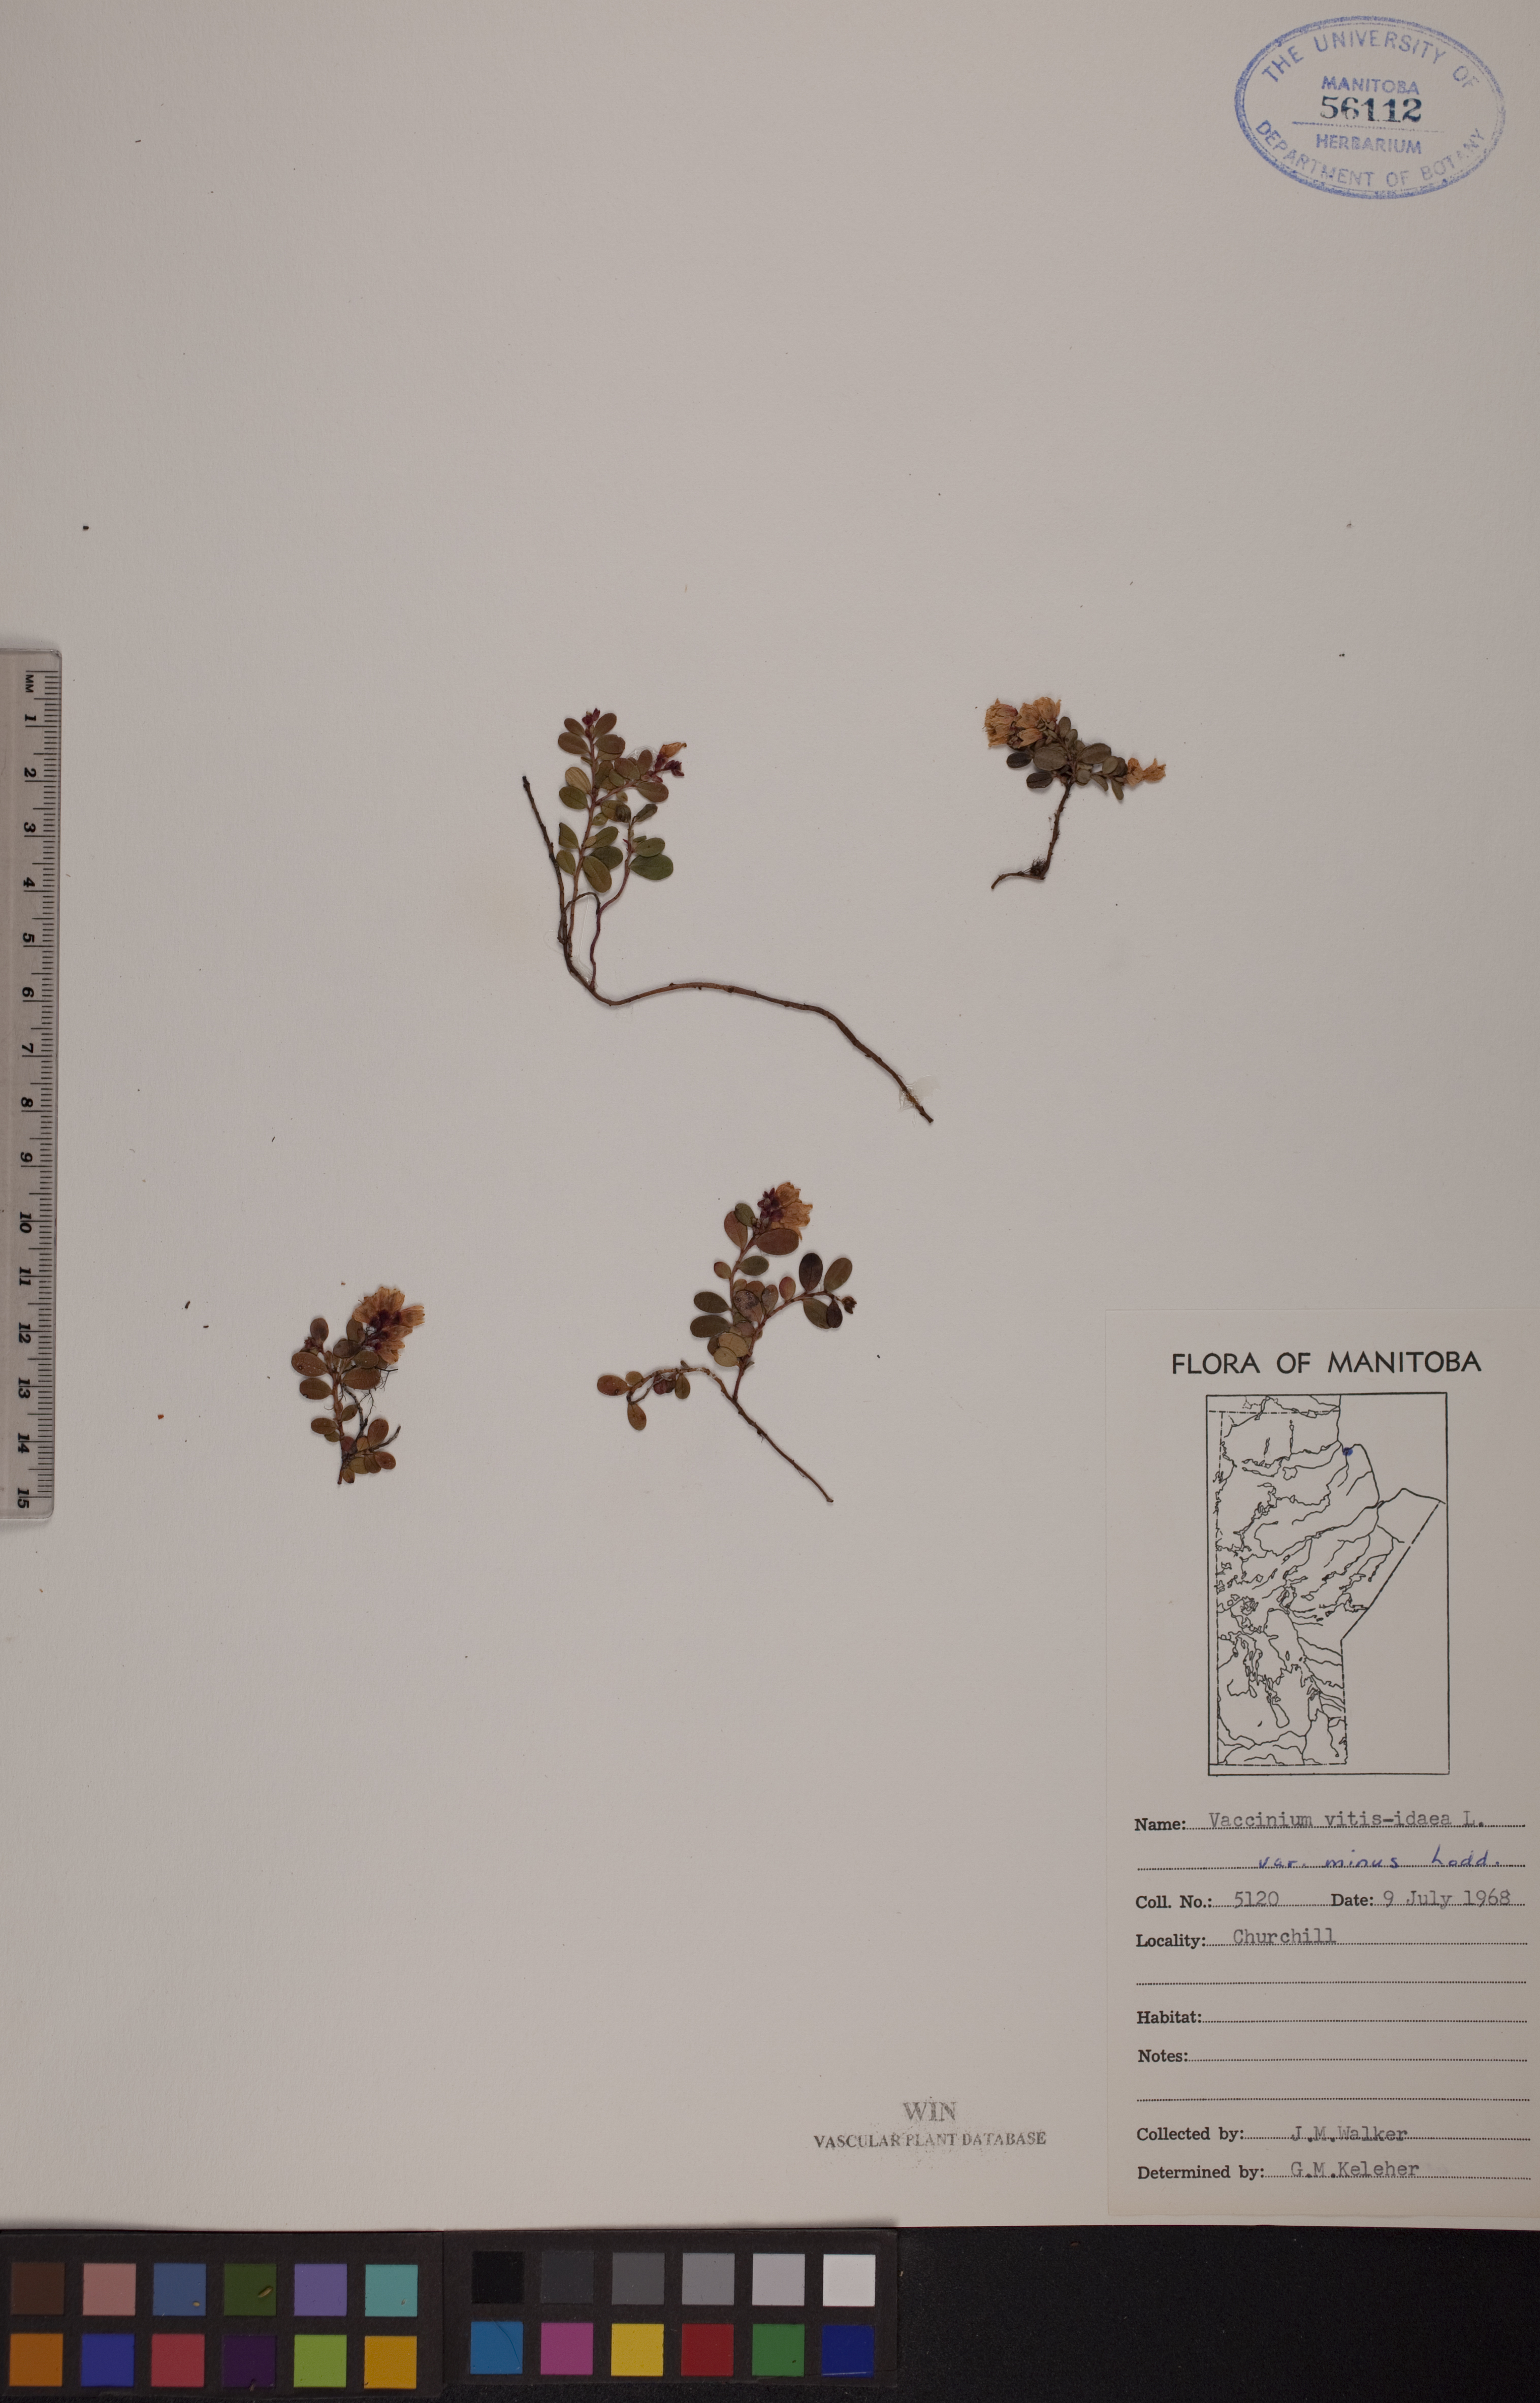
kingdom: Plantae
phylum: Tracheophyta
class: Magnoliopsida
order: Ericales
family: Ericaceae
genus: Vaccinium
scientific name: Vaccinium vitis-idaea
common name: Cowberry
